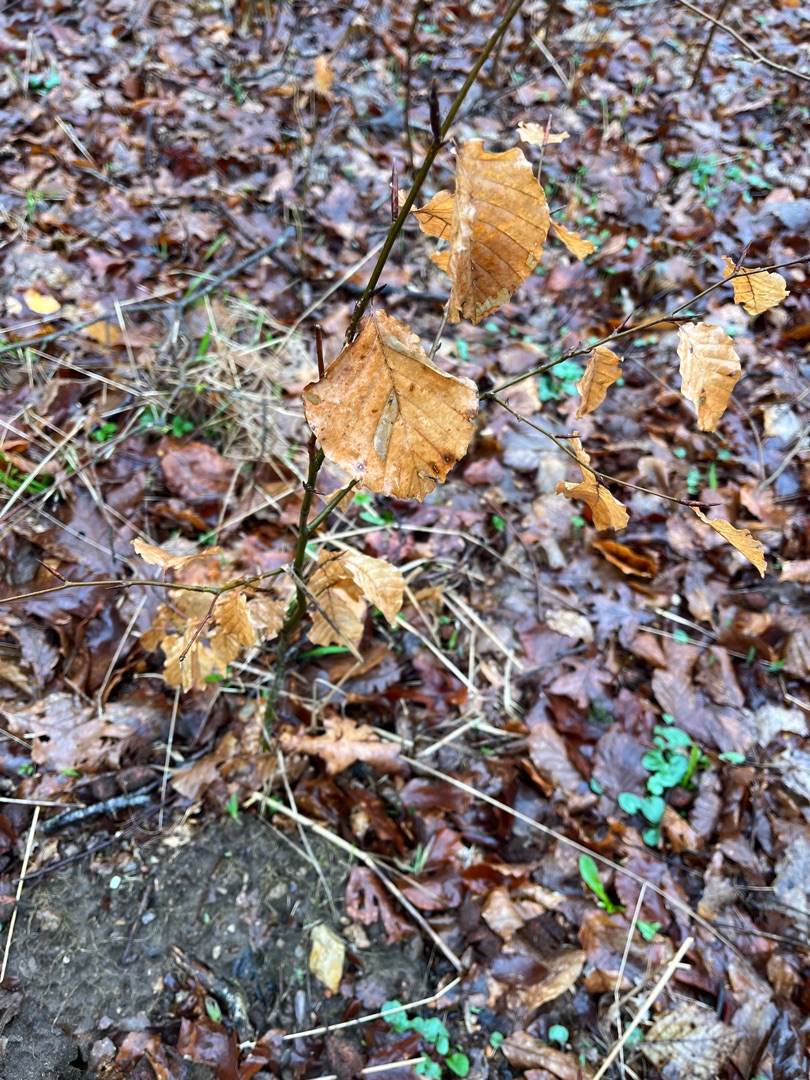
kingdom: Plantae
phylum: Tracheophyta
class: Magnoliopsida
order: Fagales
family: Fagaceae
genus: Fagus
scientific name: Fagus sylvatica
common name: Bøg
